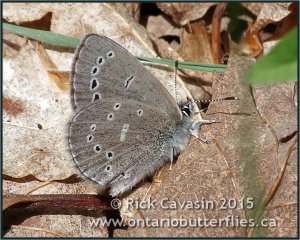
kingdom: Animalia
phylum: Arthropoda
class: Insecta
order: Lepidoptera
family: Lycaenidae
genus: Glaucopsyche
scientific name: Glaucopsyche lygdamus
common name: Silvery Blue
